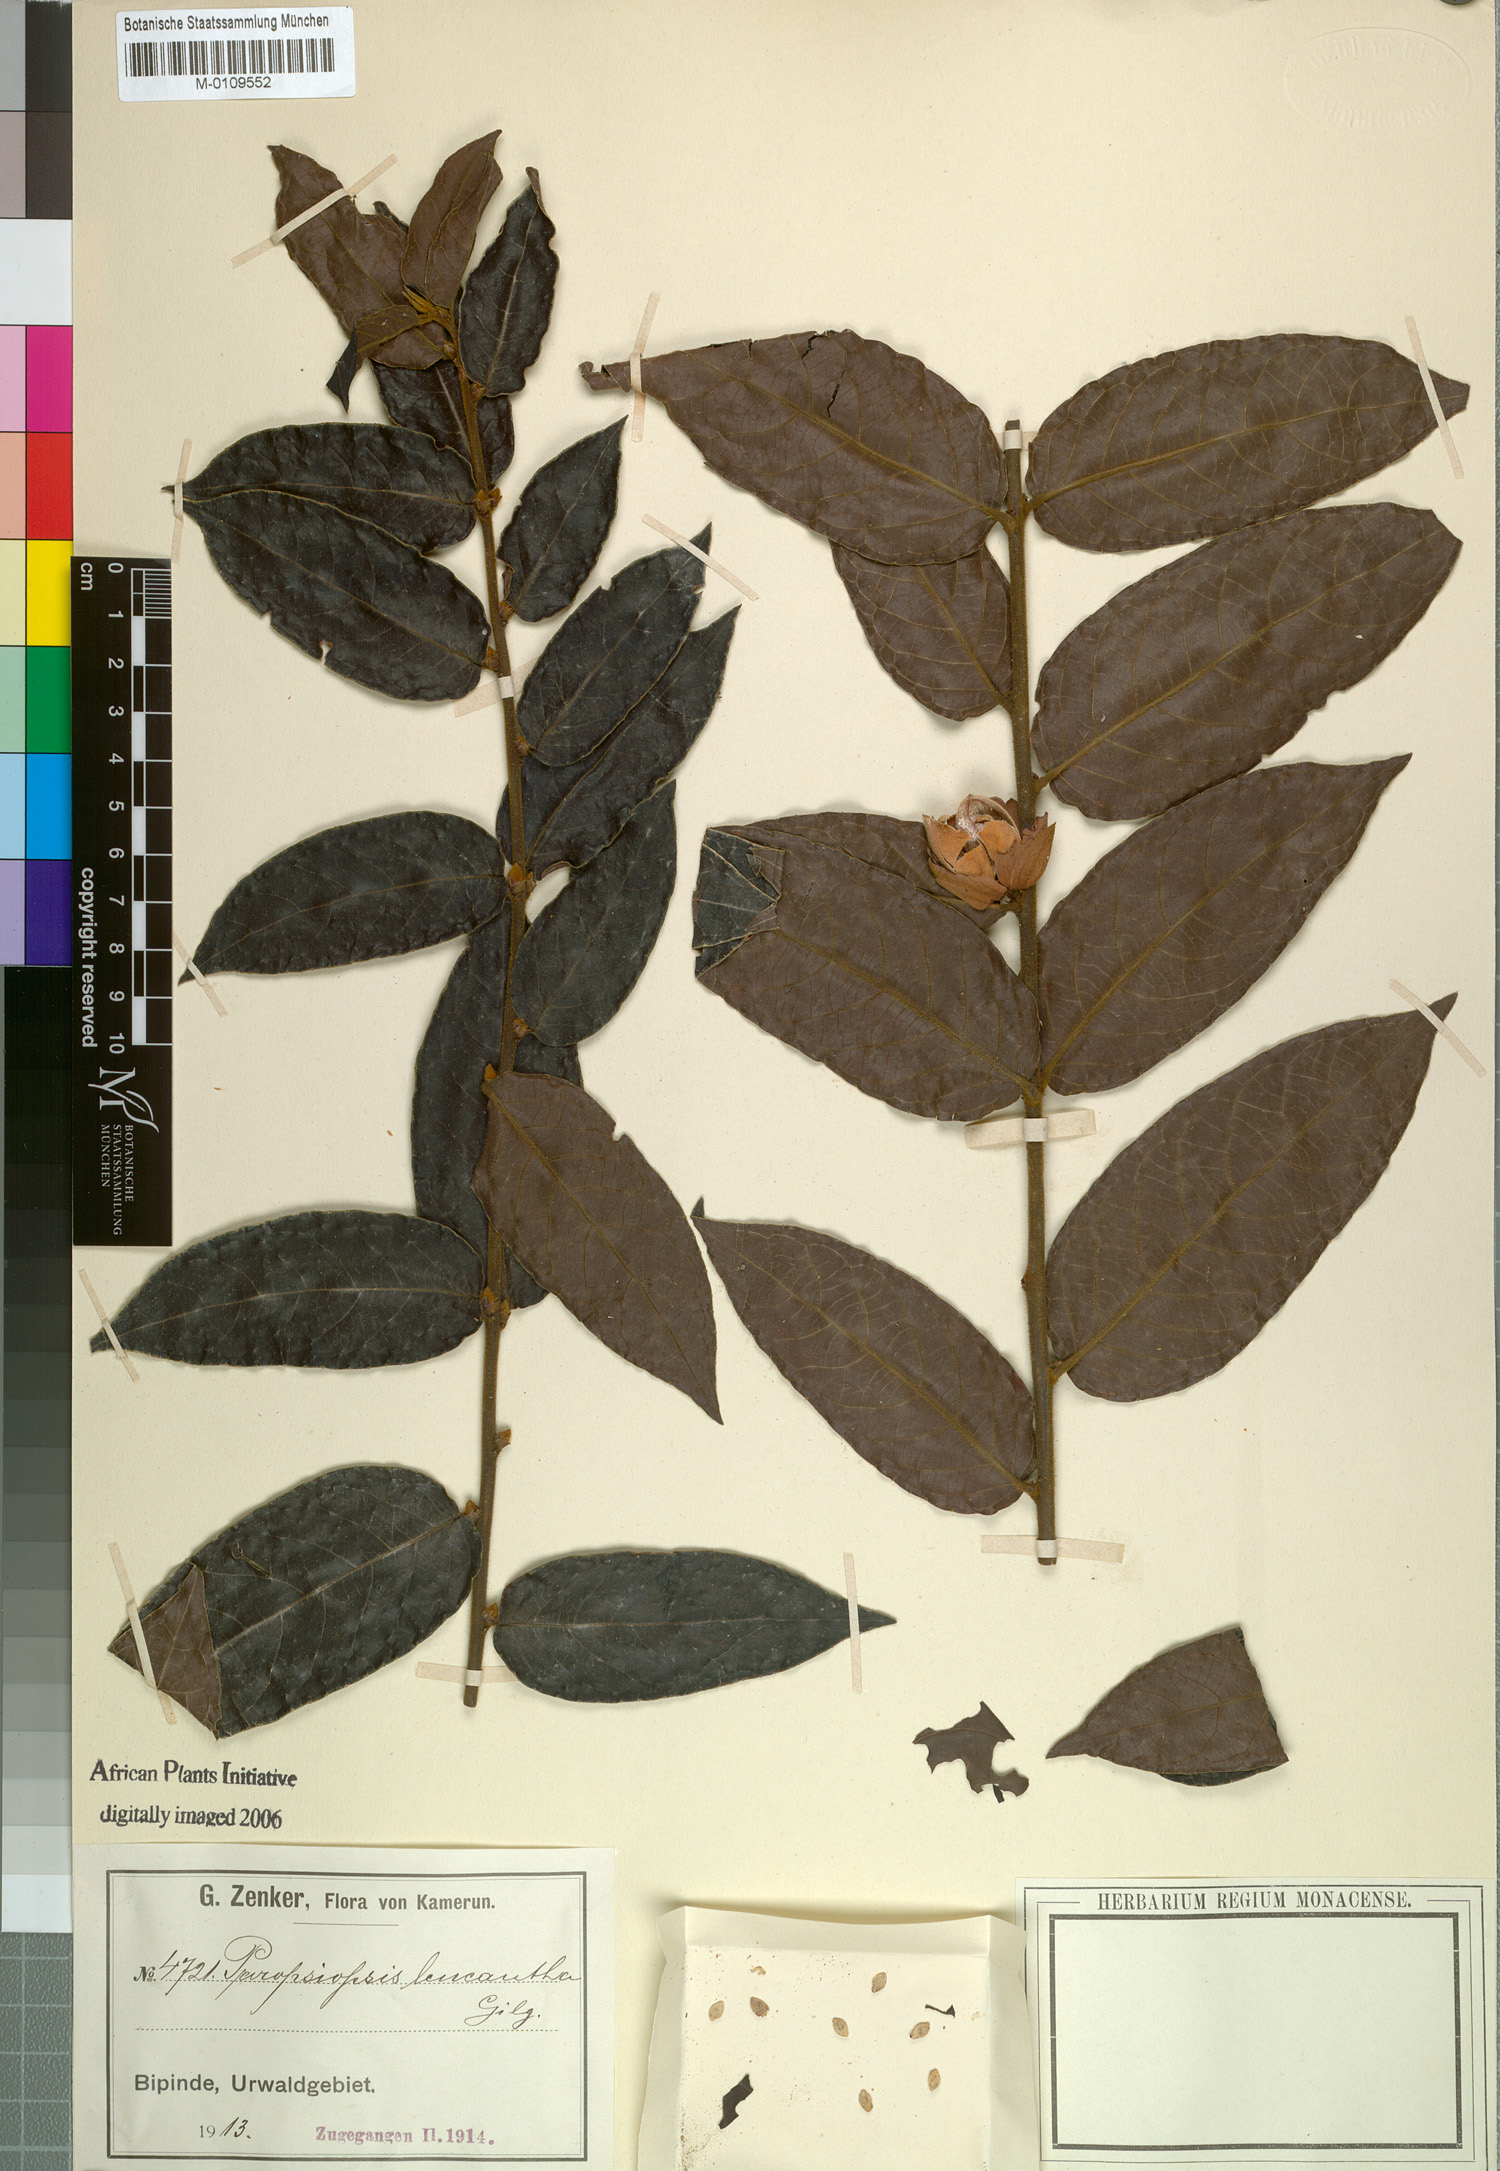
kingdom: Plantae
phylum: Tracheophyta
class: Magnoliopsida
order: Malpighiales
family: Passifloraceae
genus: Paropsiopsis
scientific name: Paropsiopsis decandra
